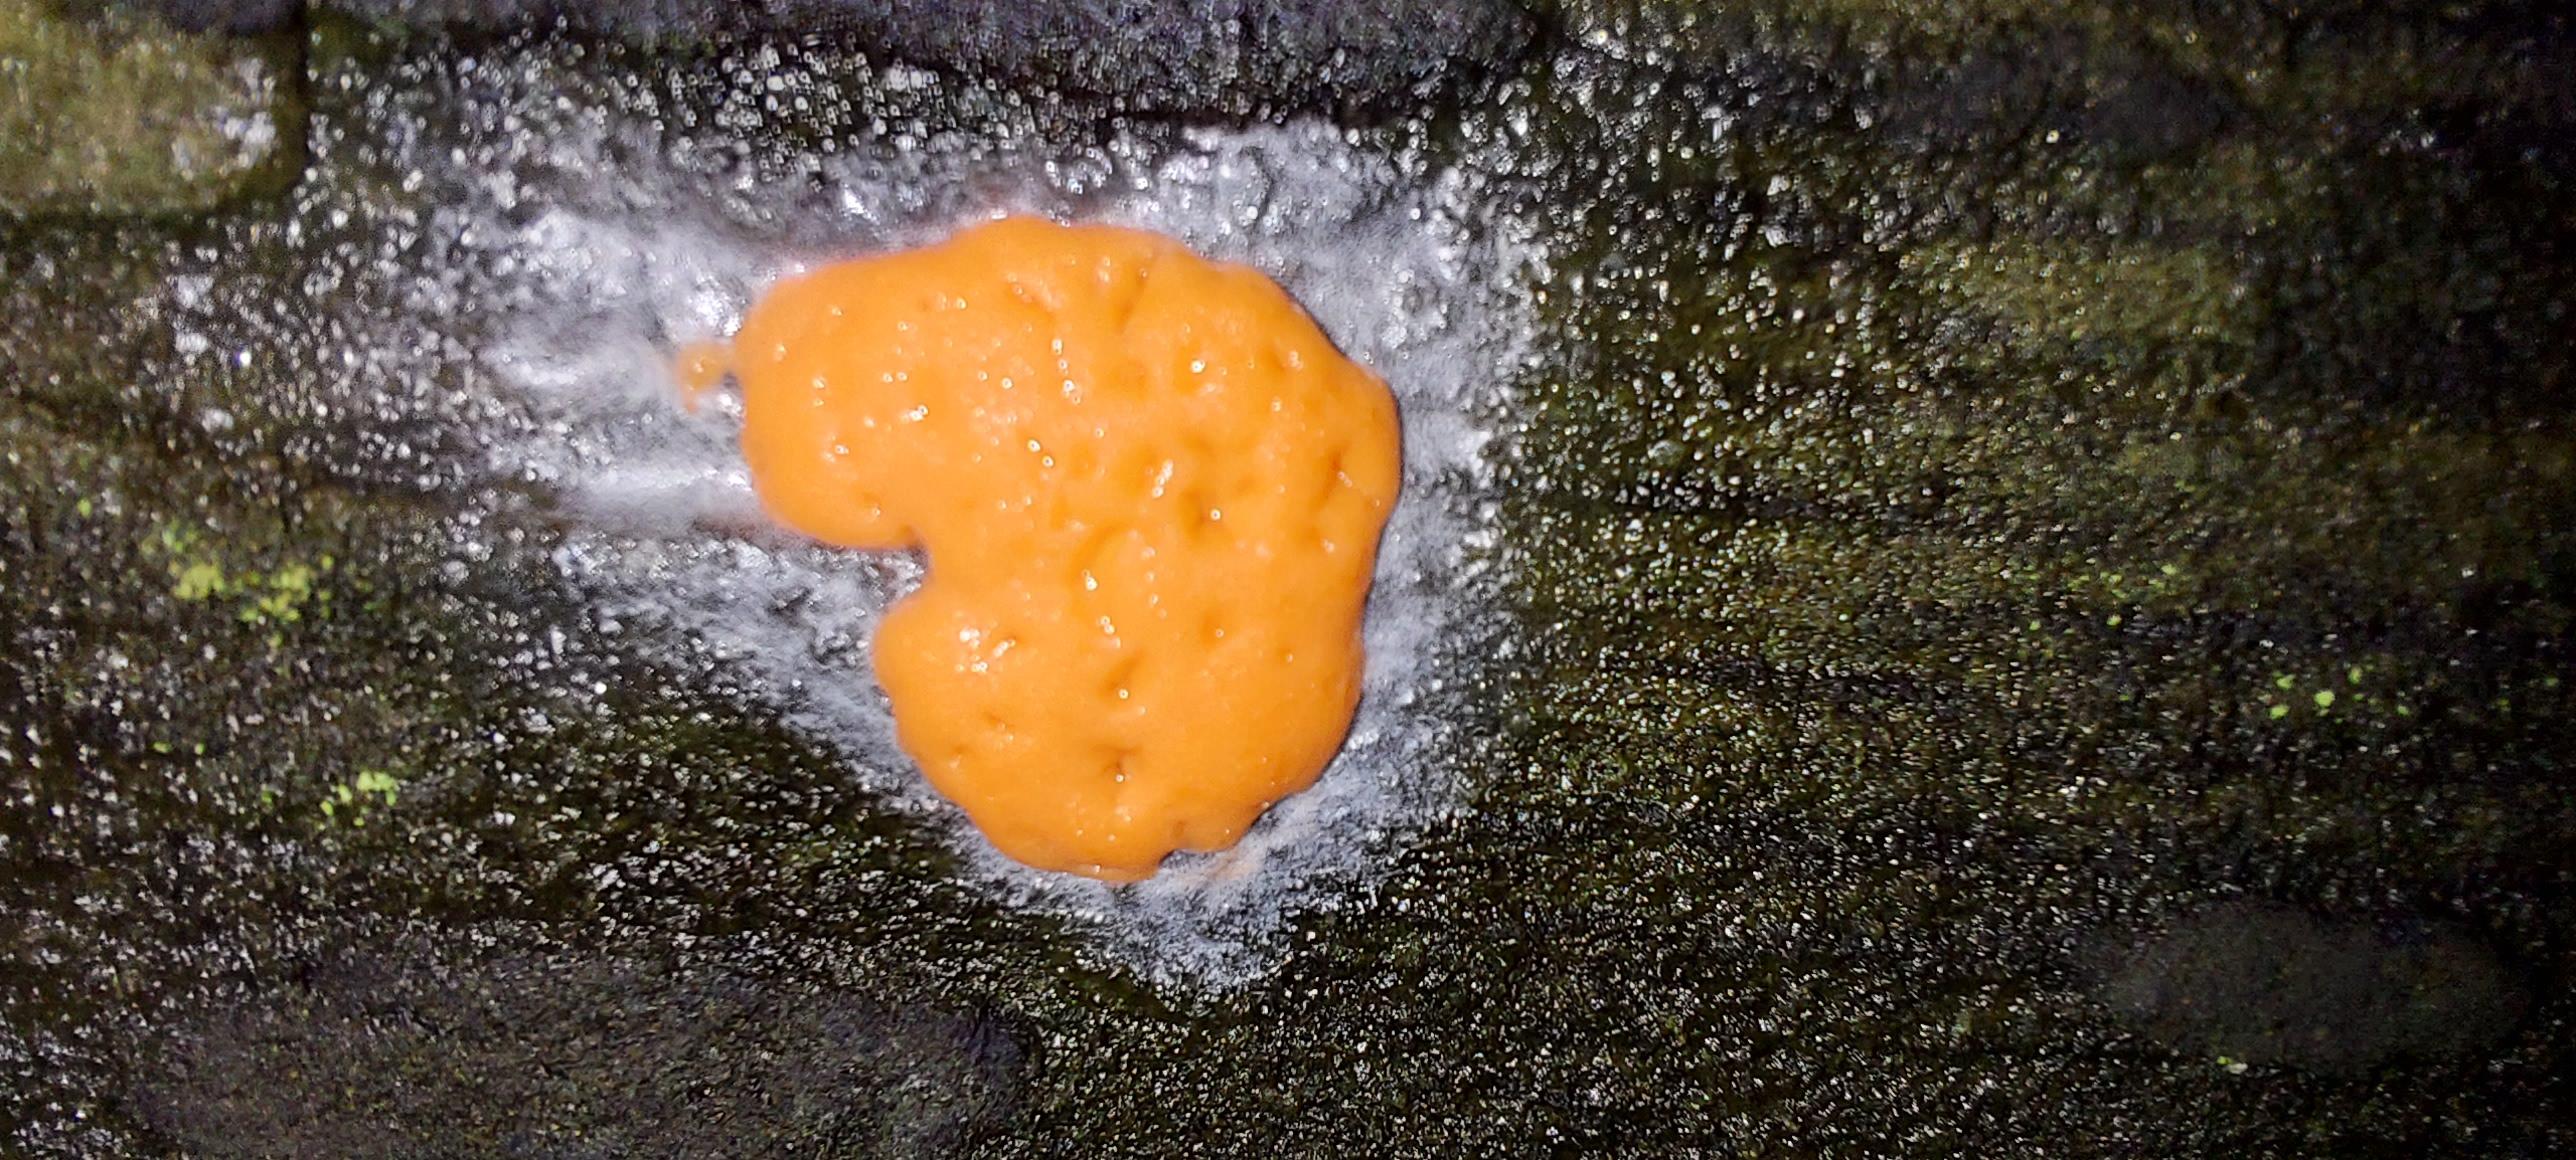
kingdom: Protozoa
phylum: Mycetozoa
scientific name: Mycetozoa
